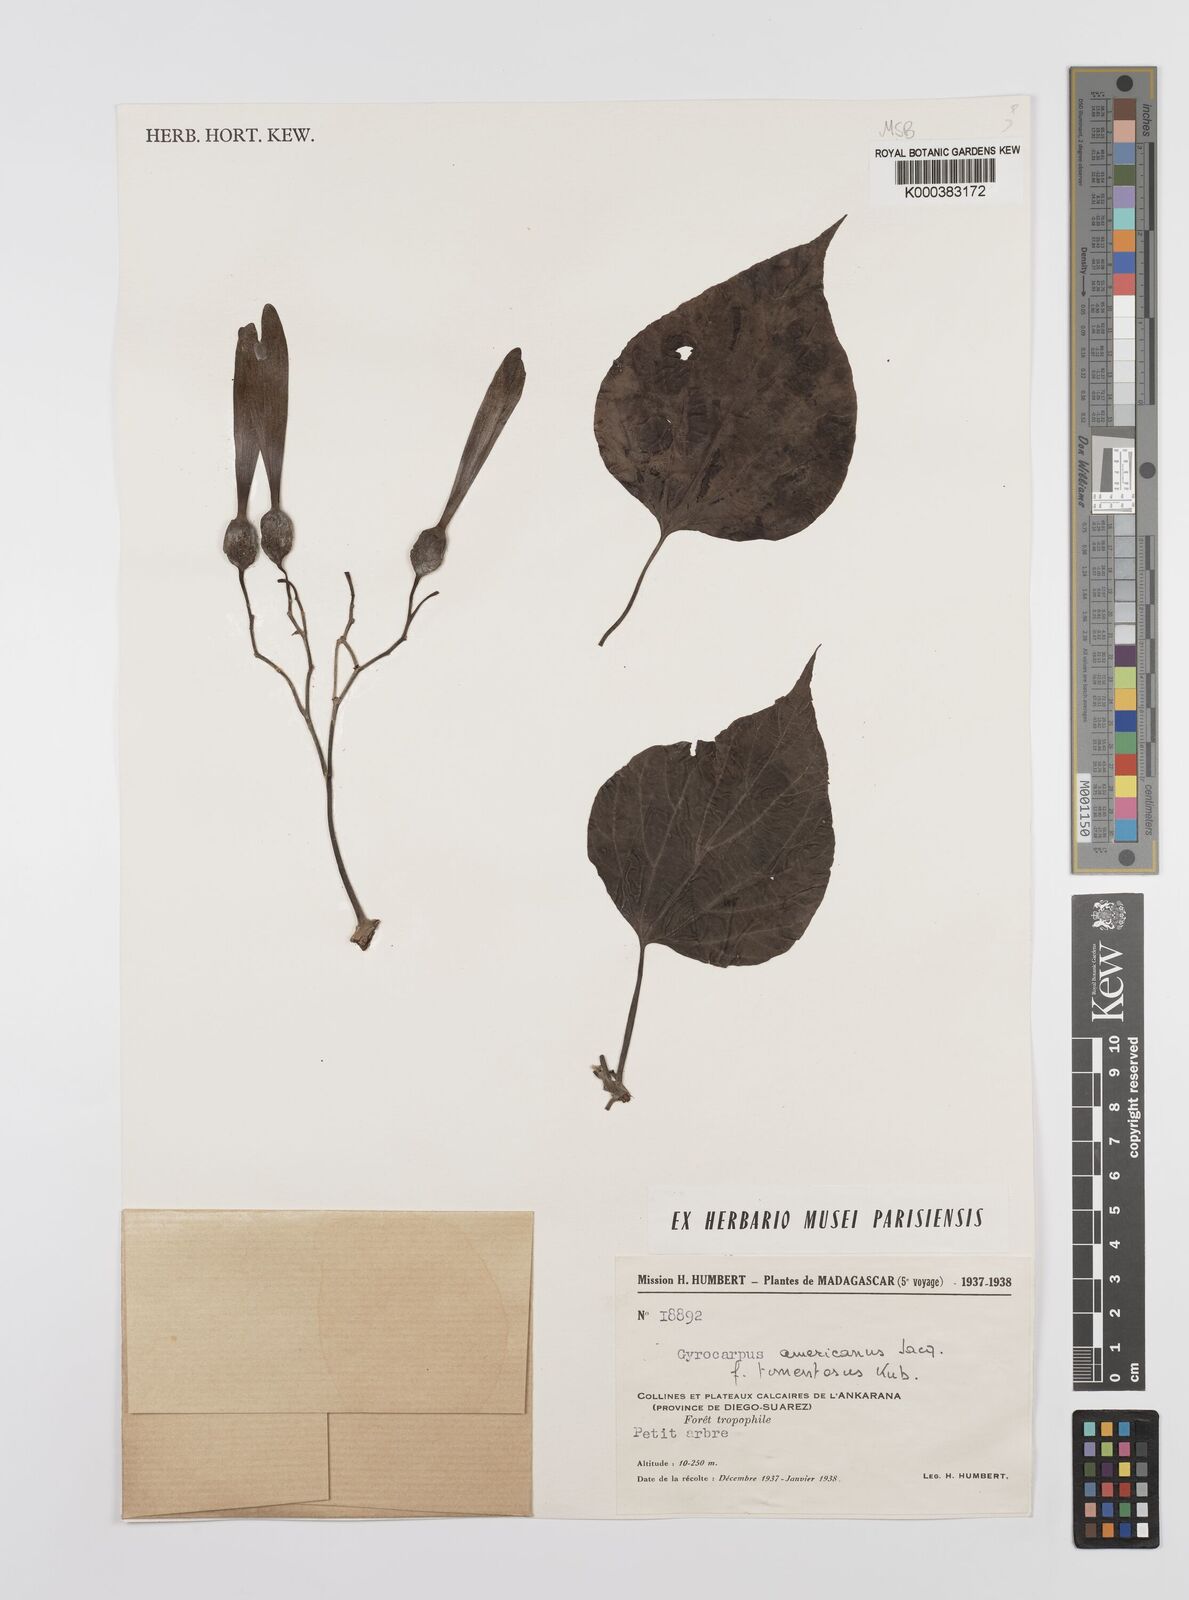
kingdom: Plantae
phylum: Tracheophyta
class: Magnoliopsida
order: Laurales
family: Hernandiaceae
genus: Gyrocarpus
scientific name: Gyrocarpus americanus
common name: Gyro damson
